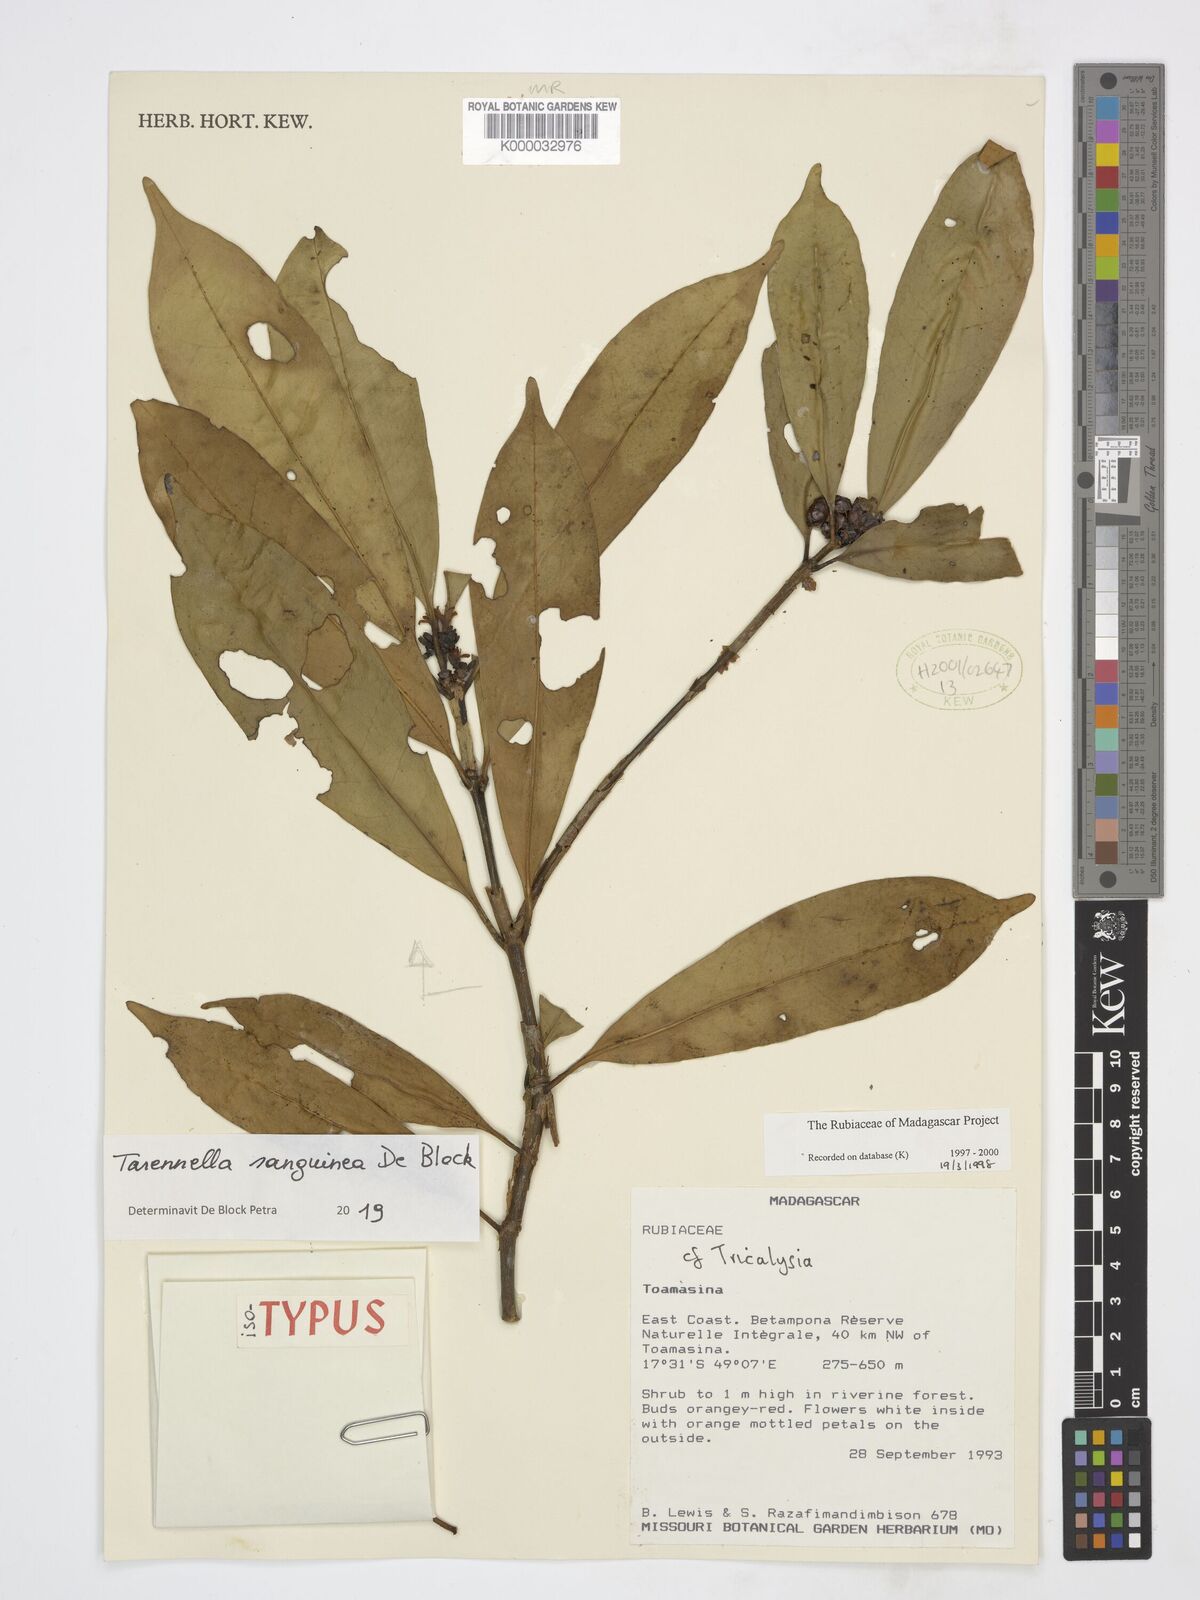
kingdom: Plantae
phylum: Tracheophyta
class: Magnoliopsida
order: Gentianales
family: Rubiaceae
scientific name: Rubiaceae
